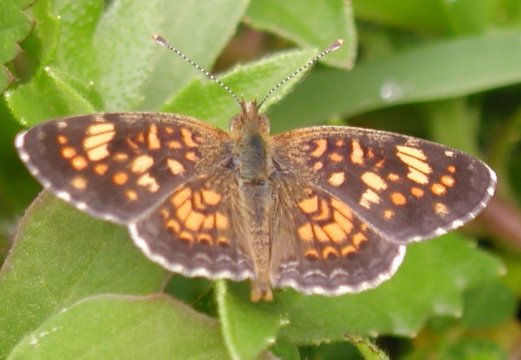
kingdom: Animalia
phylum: Arthropoda
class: Insecta
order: Lepidoptera
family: Nymphalidae
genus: Phyciodes
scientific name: Phyciodes vesta
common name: Vesta Crescent
